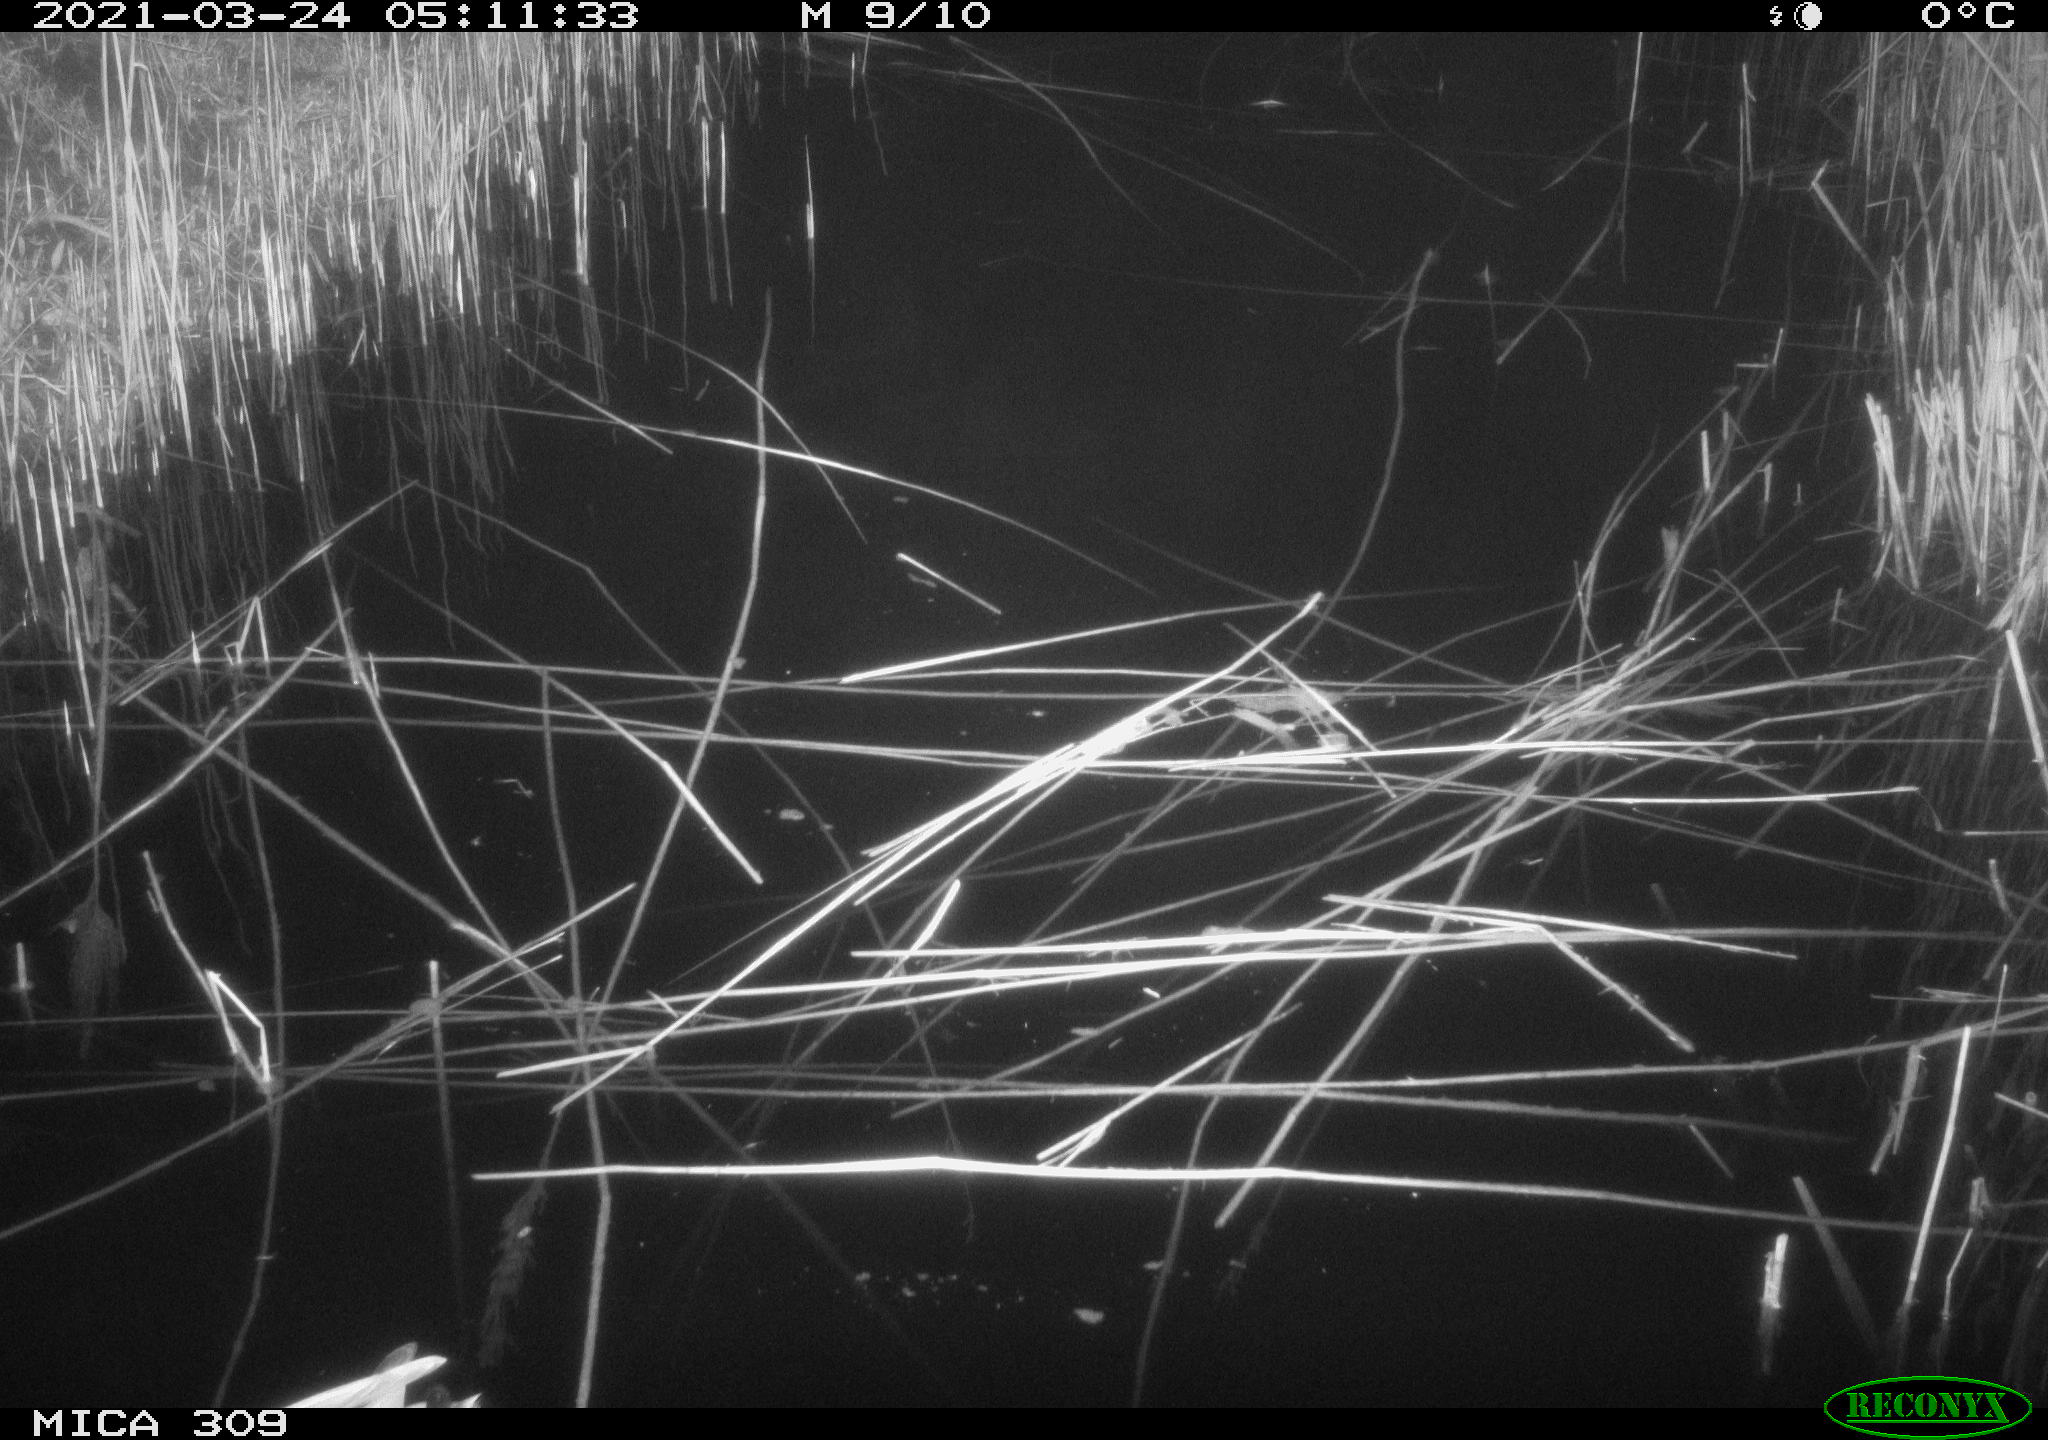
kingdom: Animalia
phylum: Chordata
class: Aves
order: Anseriformes
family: Anatidae
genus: Anas
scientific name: Anas platyrhynchos
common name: Mallard
